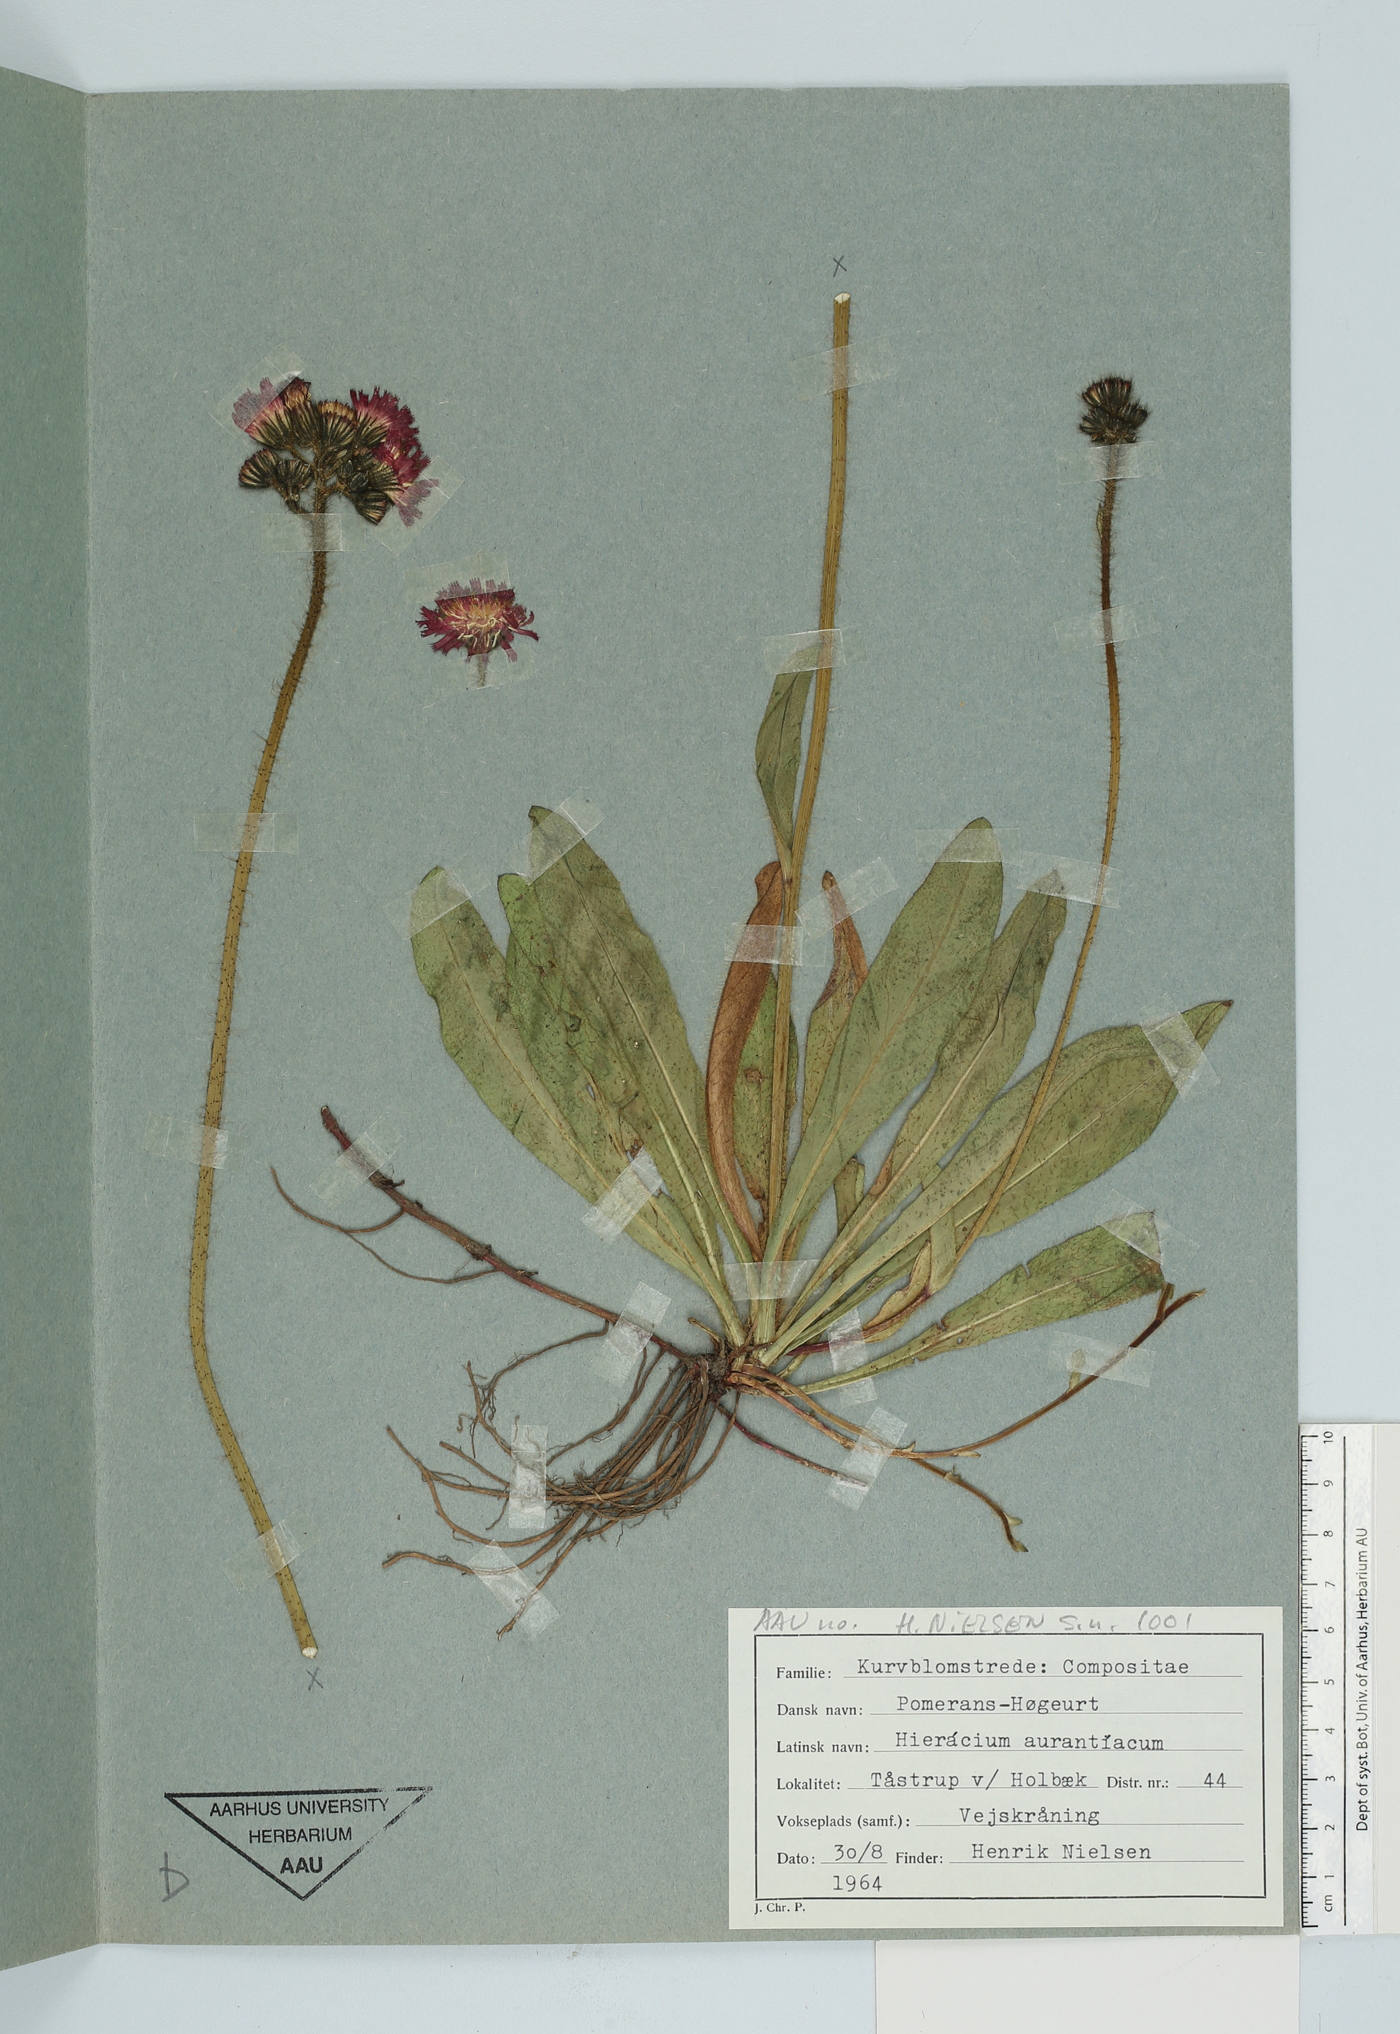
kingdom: Plantae
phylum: Tracheophyta
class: Magnoliopsida
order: Asterales
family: Asteraceae
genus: Pilosella
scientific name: Pilosella aurantiaca
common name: Fox-and-cubs
